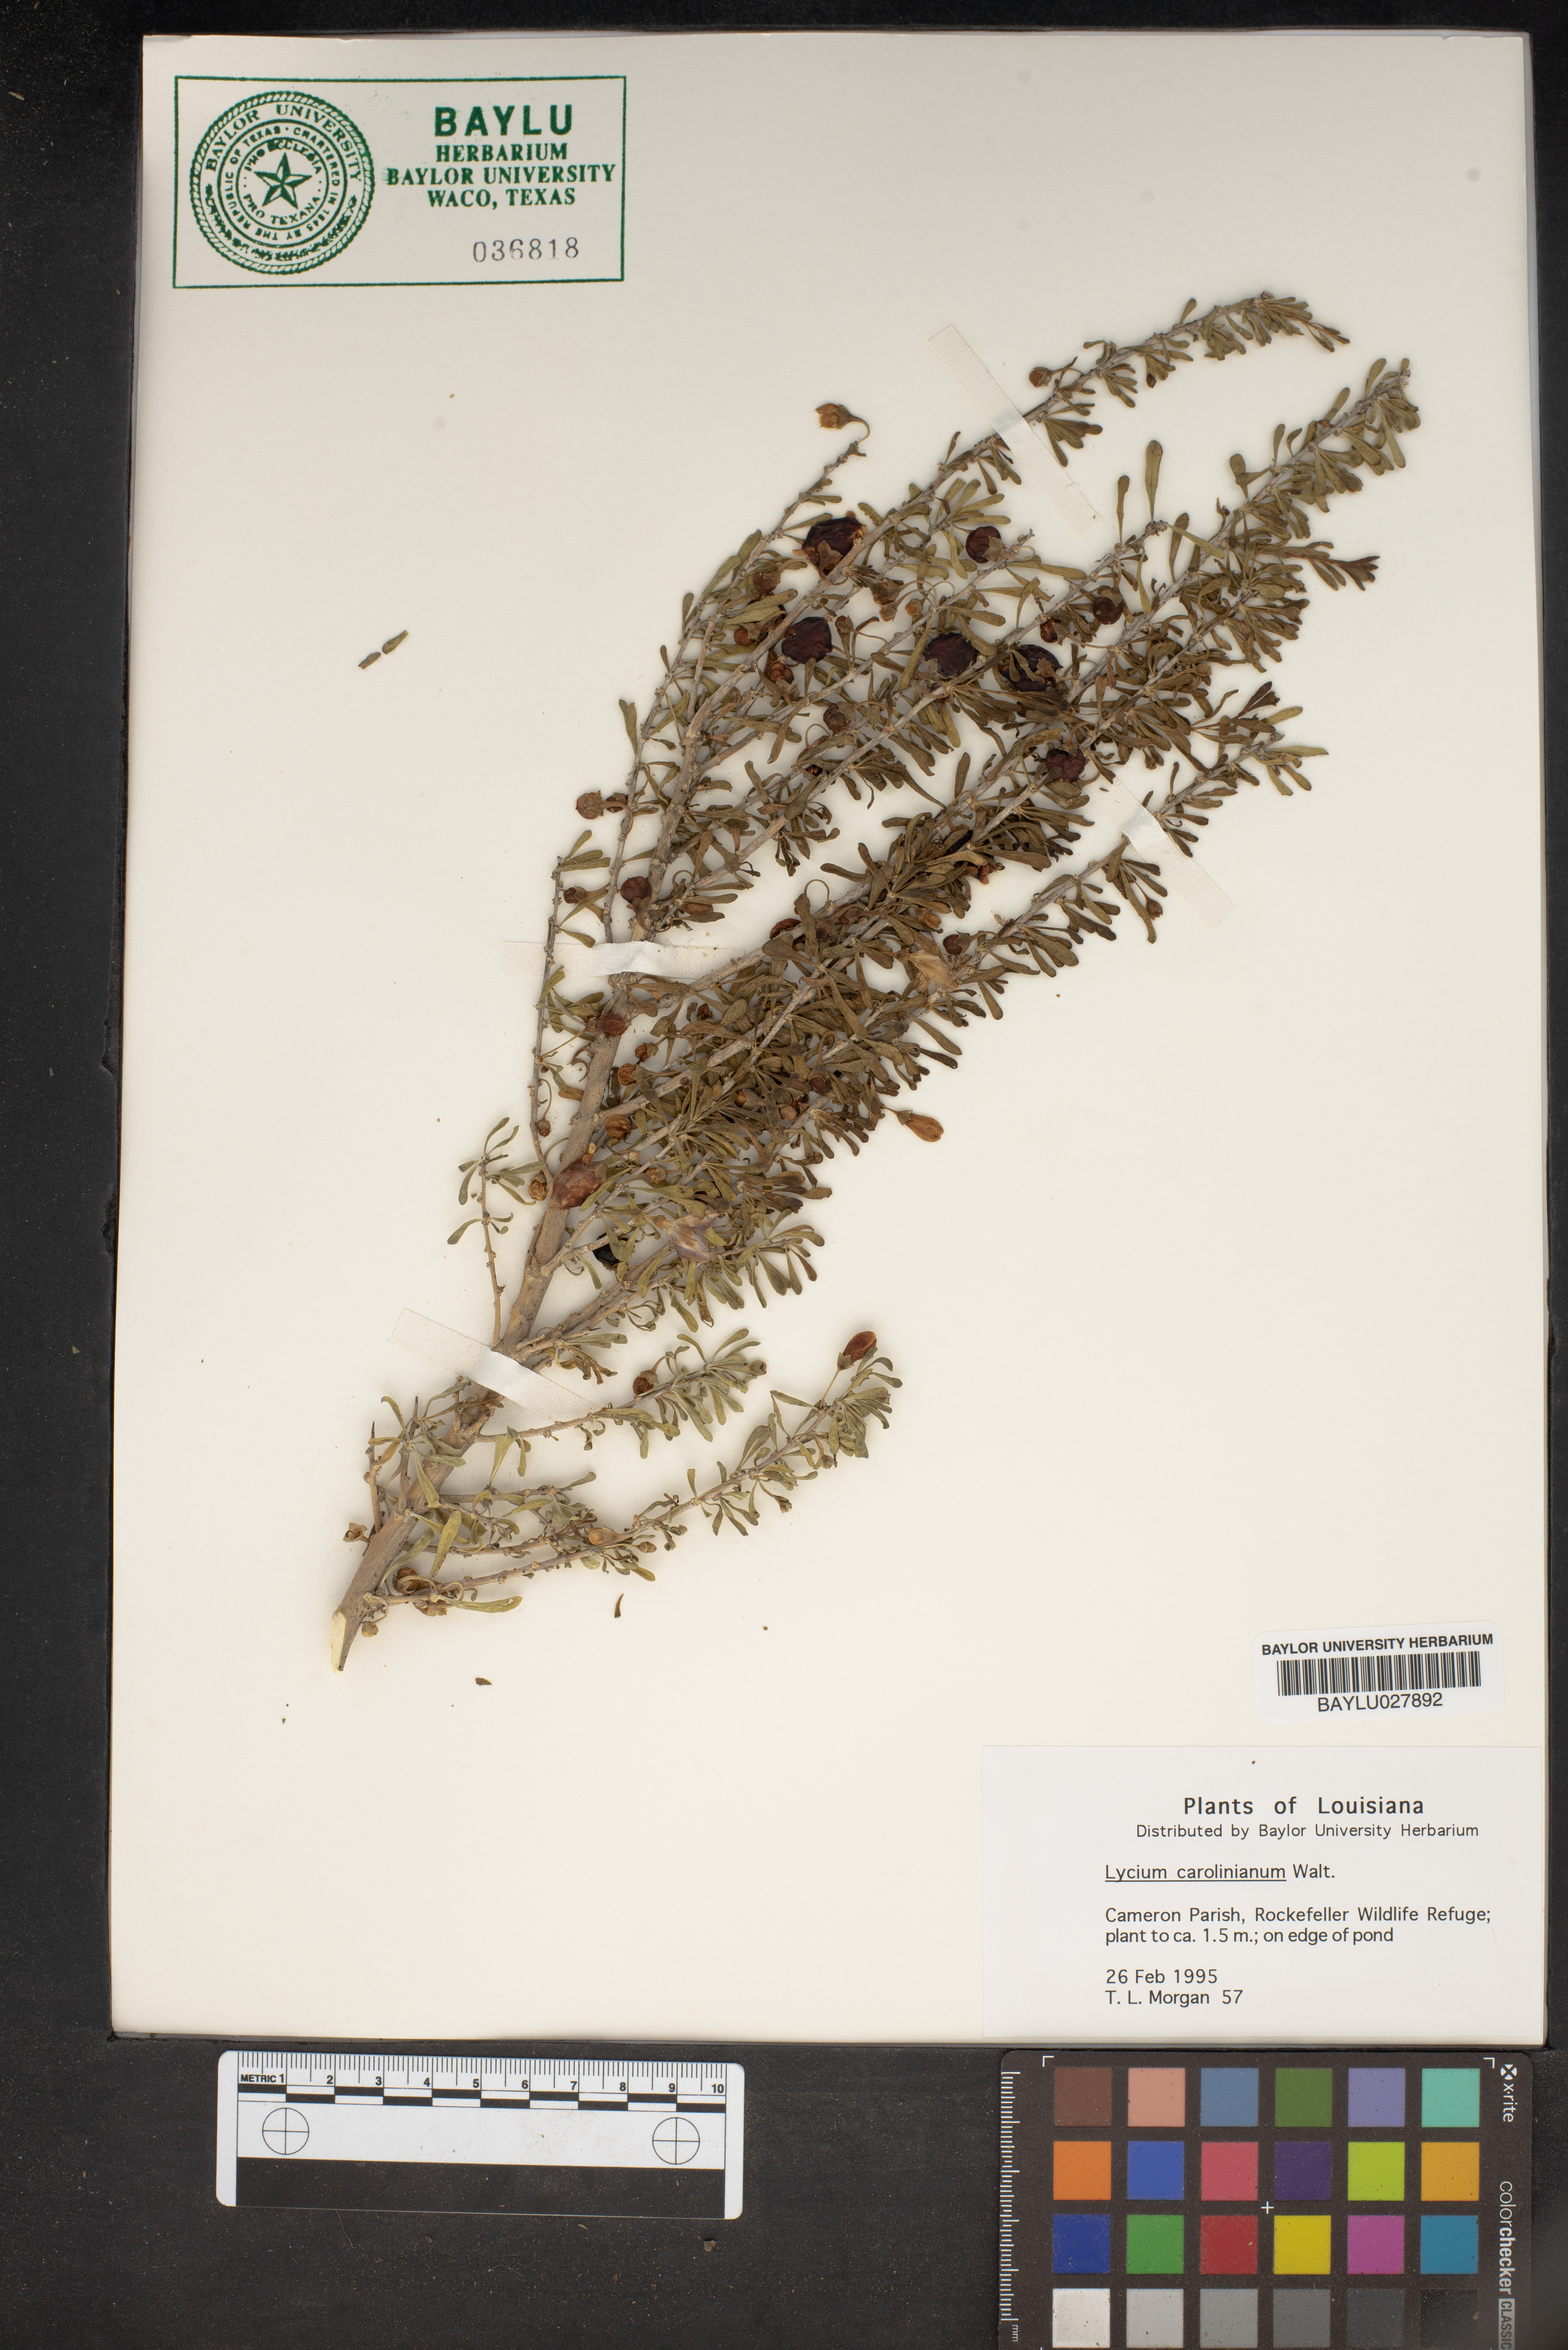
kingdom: Plantae
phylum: Tracheophyta
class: Magnoliopsida
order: Solanales
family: Solanaceae
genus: Lycium
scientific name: Lycium carolinianum
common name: Christmasberry
